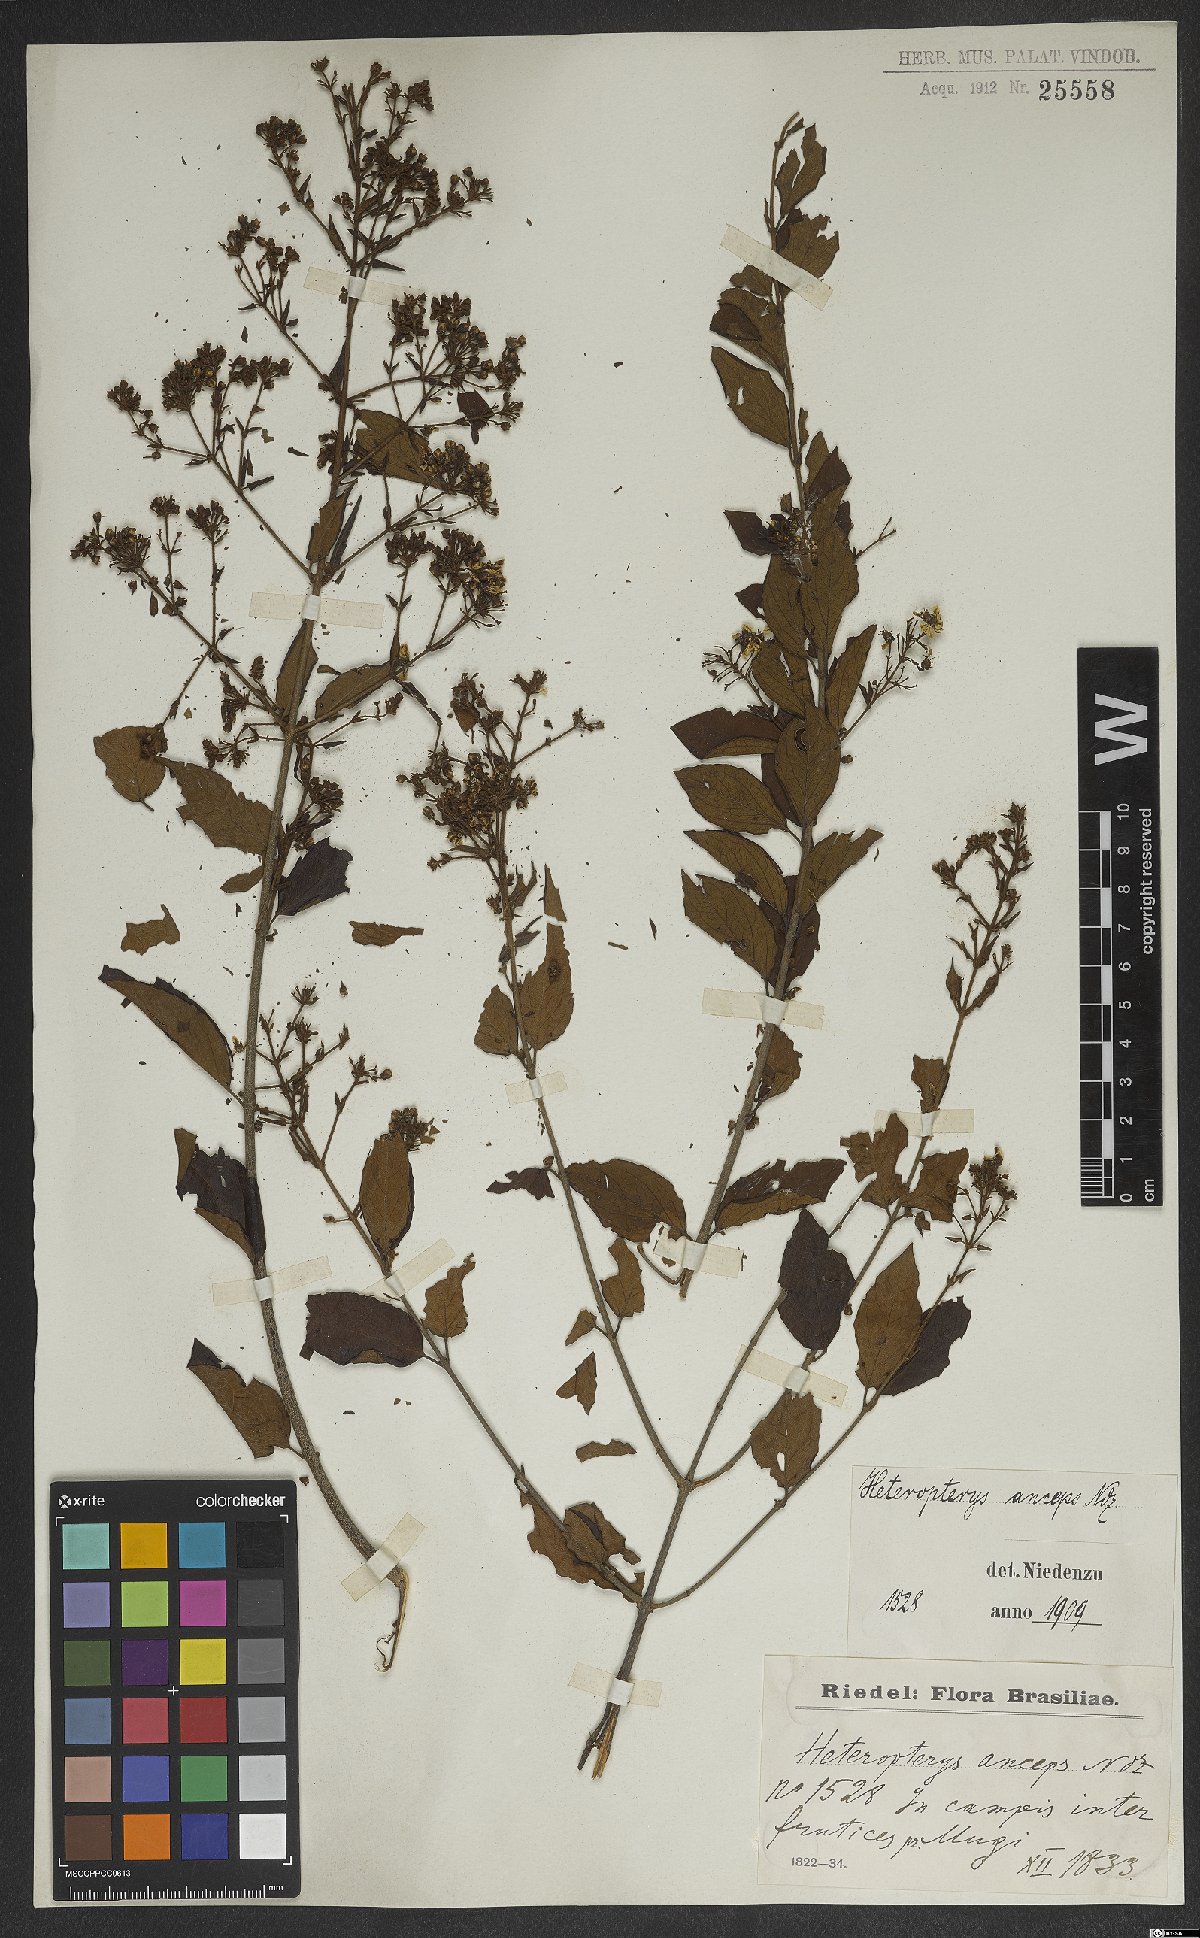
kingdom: Plantae
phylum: Tracheophyta
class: Magnoliopsida
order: Malpighiales
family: Malpighiaceae
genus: Heteropterys
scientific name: Heteropterys banksiifolia
